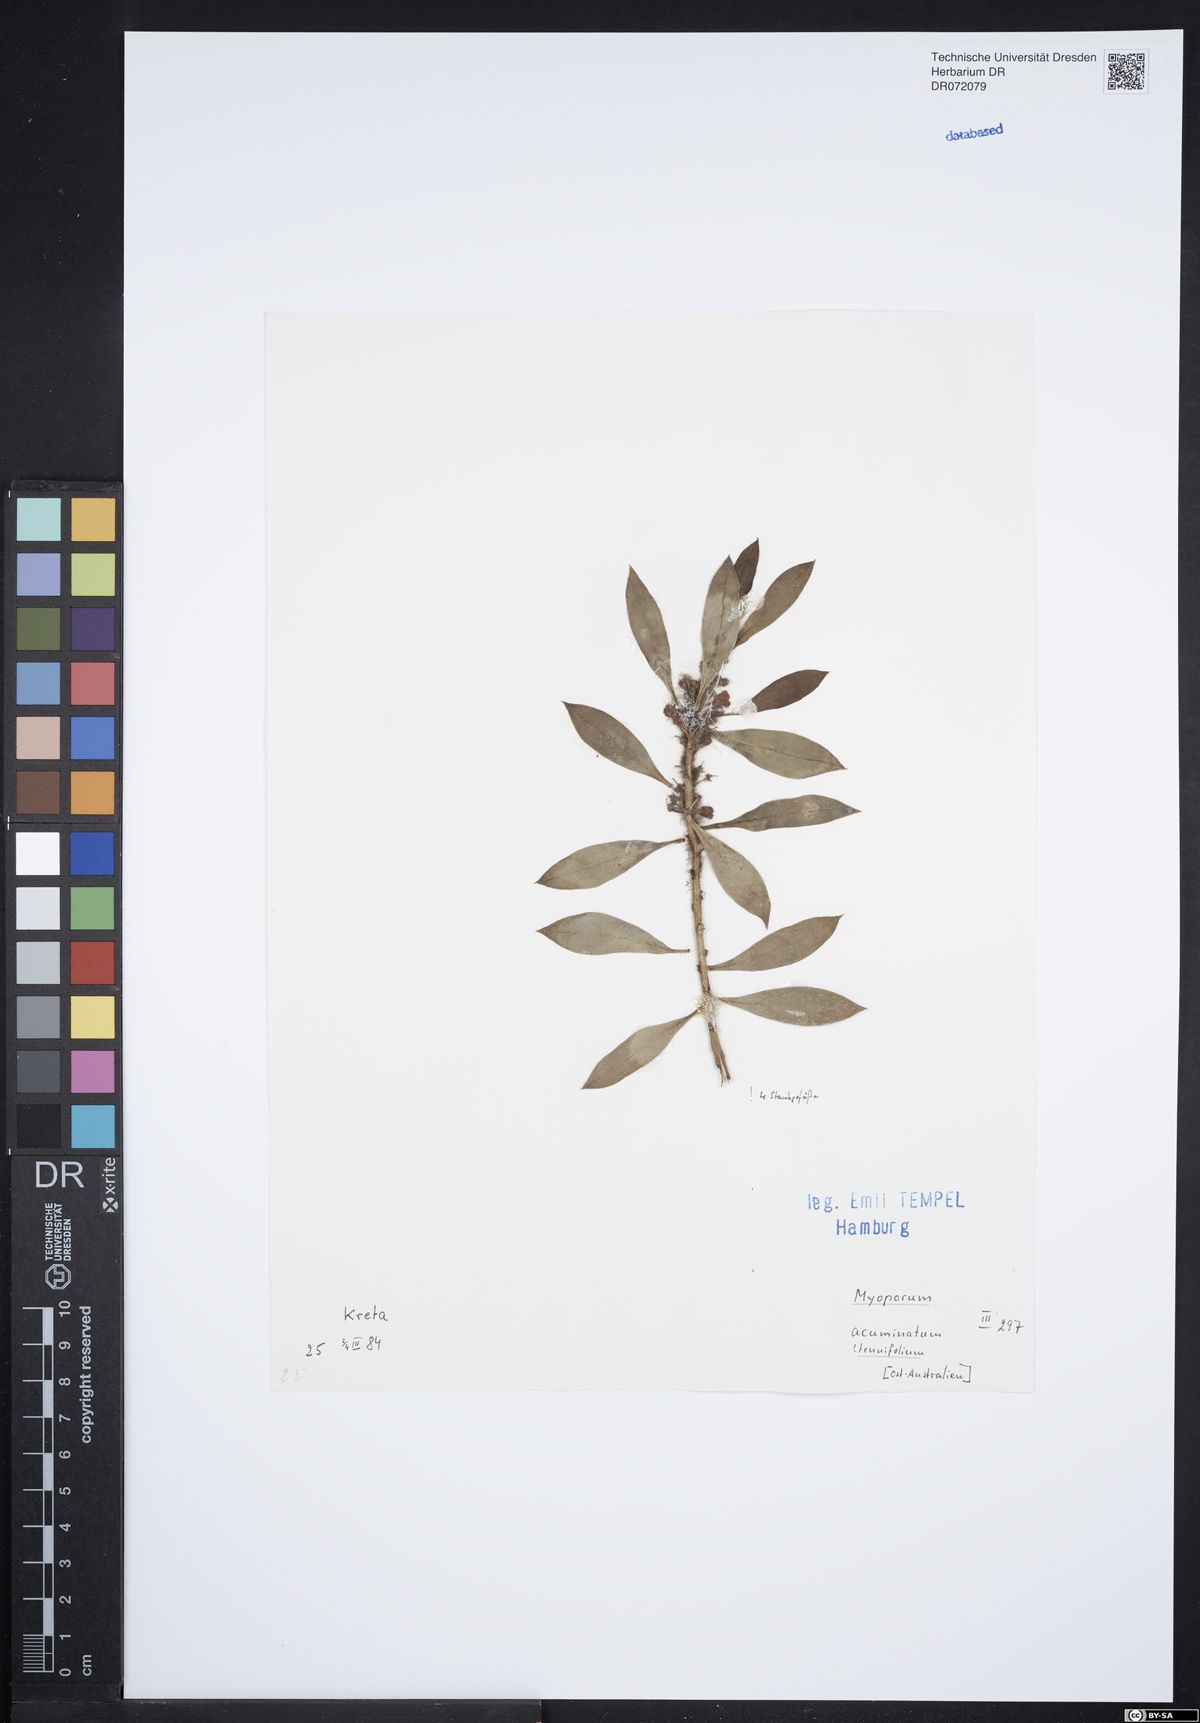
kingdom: Plantae
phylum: Tracheophyta
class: Magnoliopsida
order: Lamiales
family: Scrophulariaceae
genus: Myoporum
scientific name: Myoporum tenuifolium
